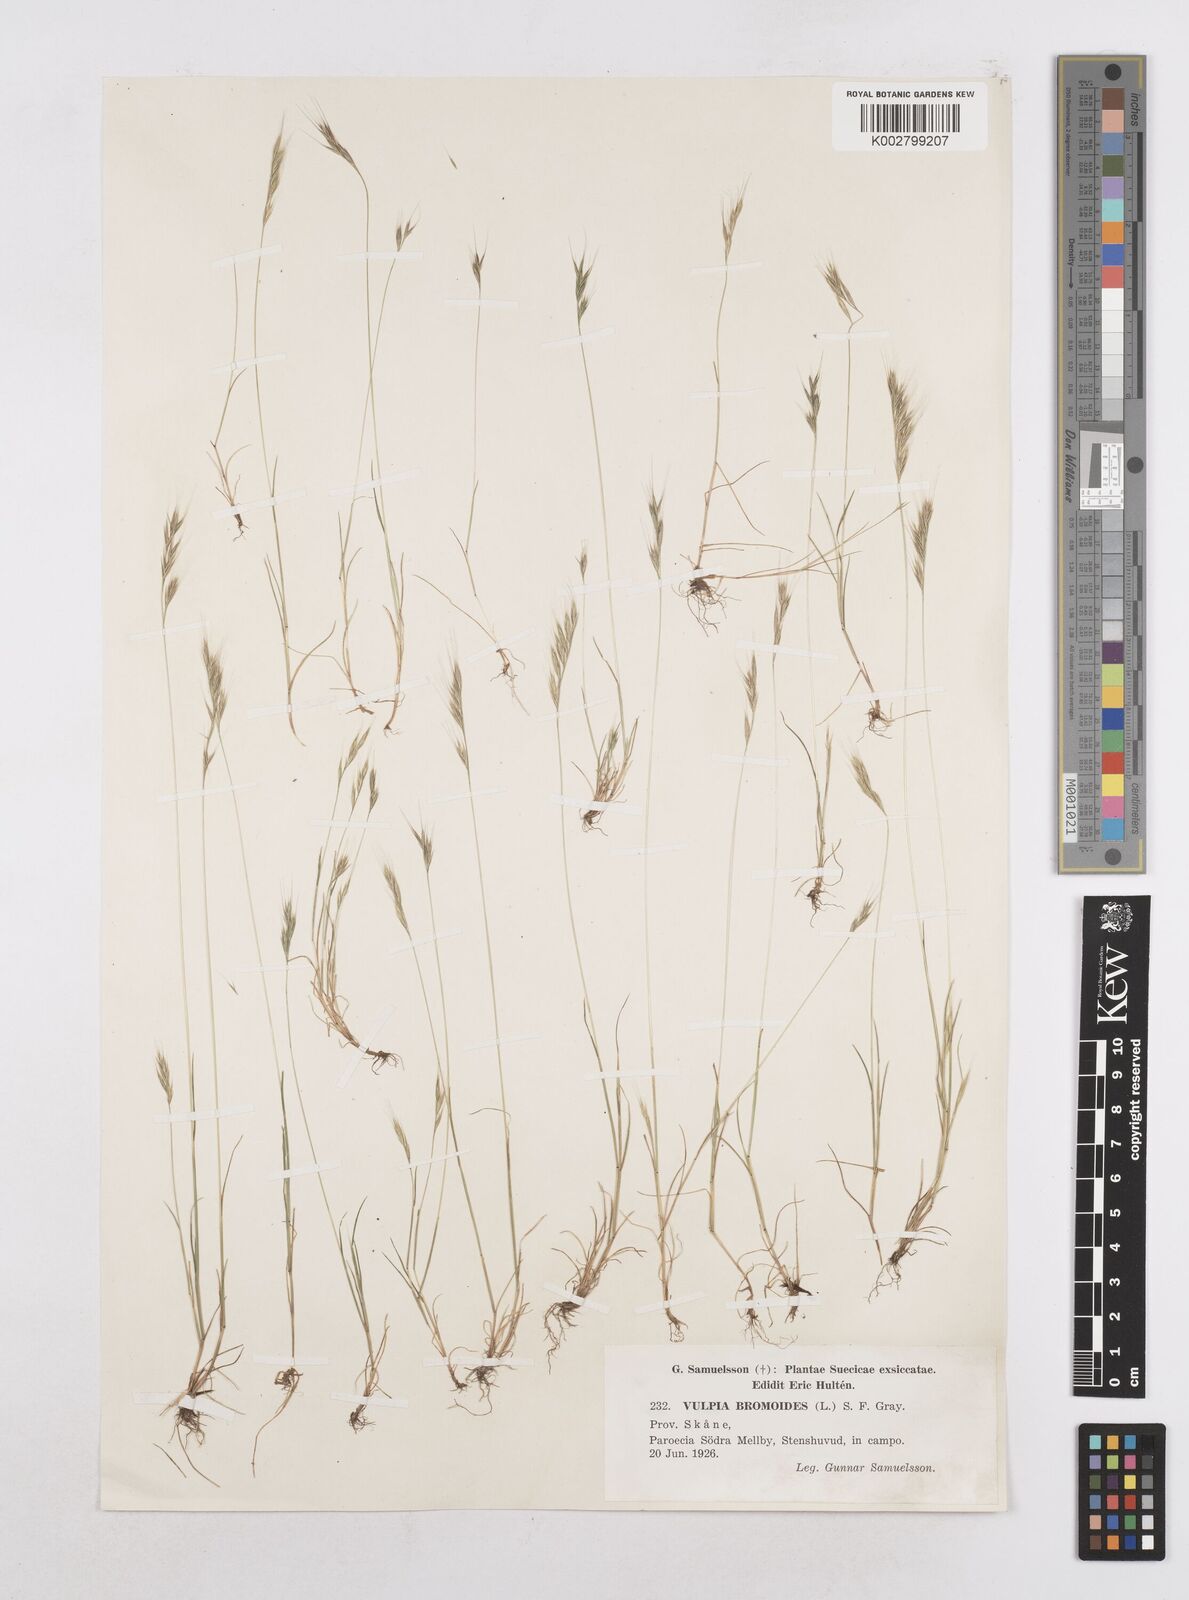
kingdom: Plantae
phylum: Tracheophyta
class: Liliopsida
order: Poales
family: Poaceae
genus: Festuca
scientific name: Festuca bromoides
